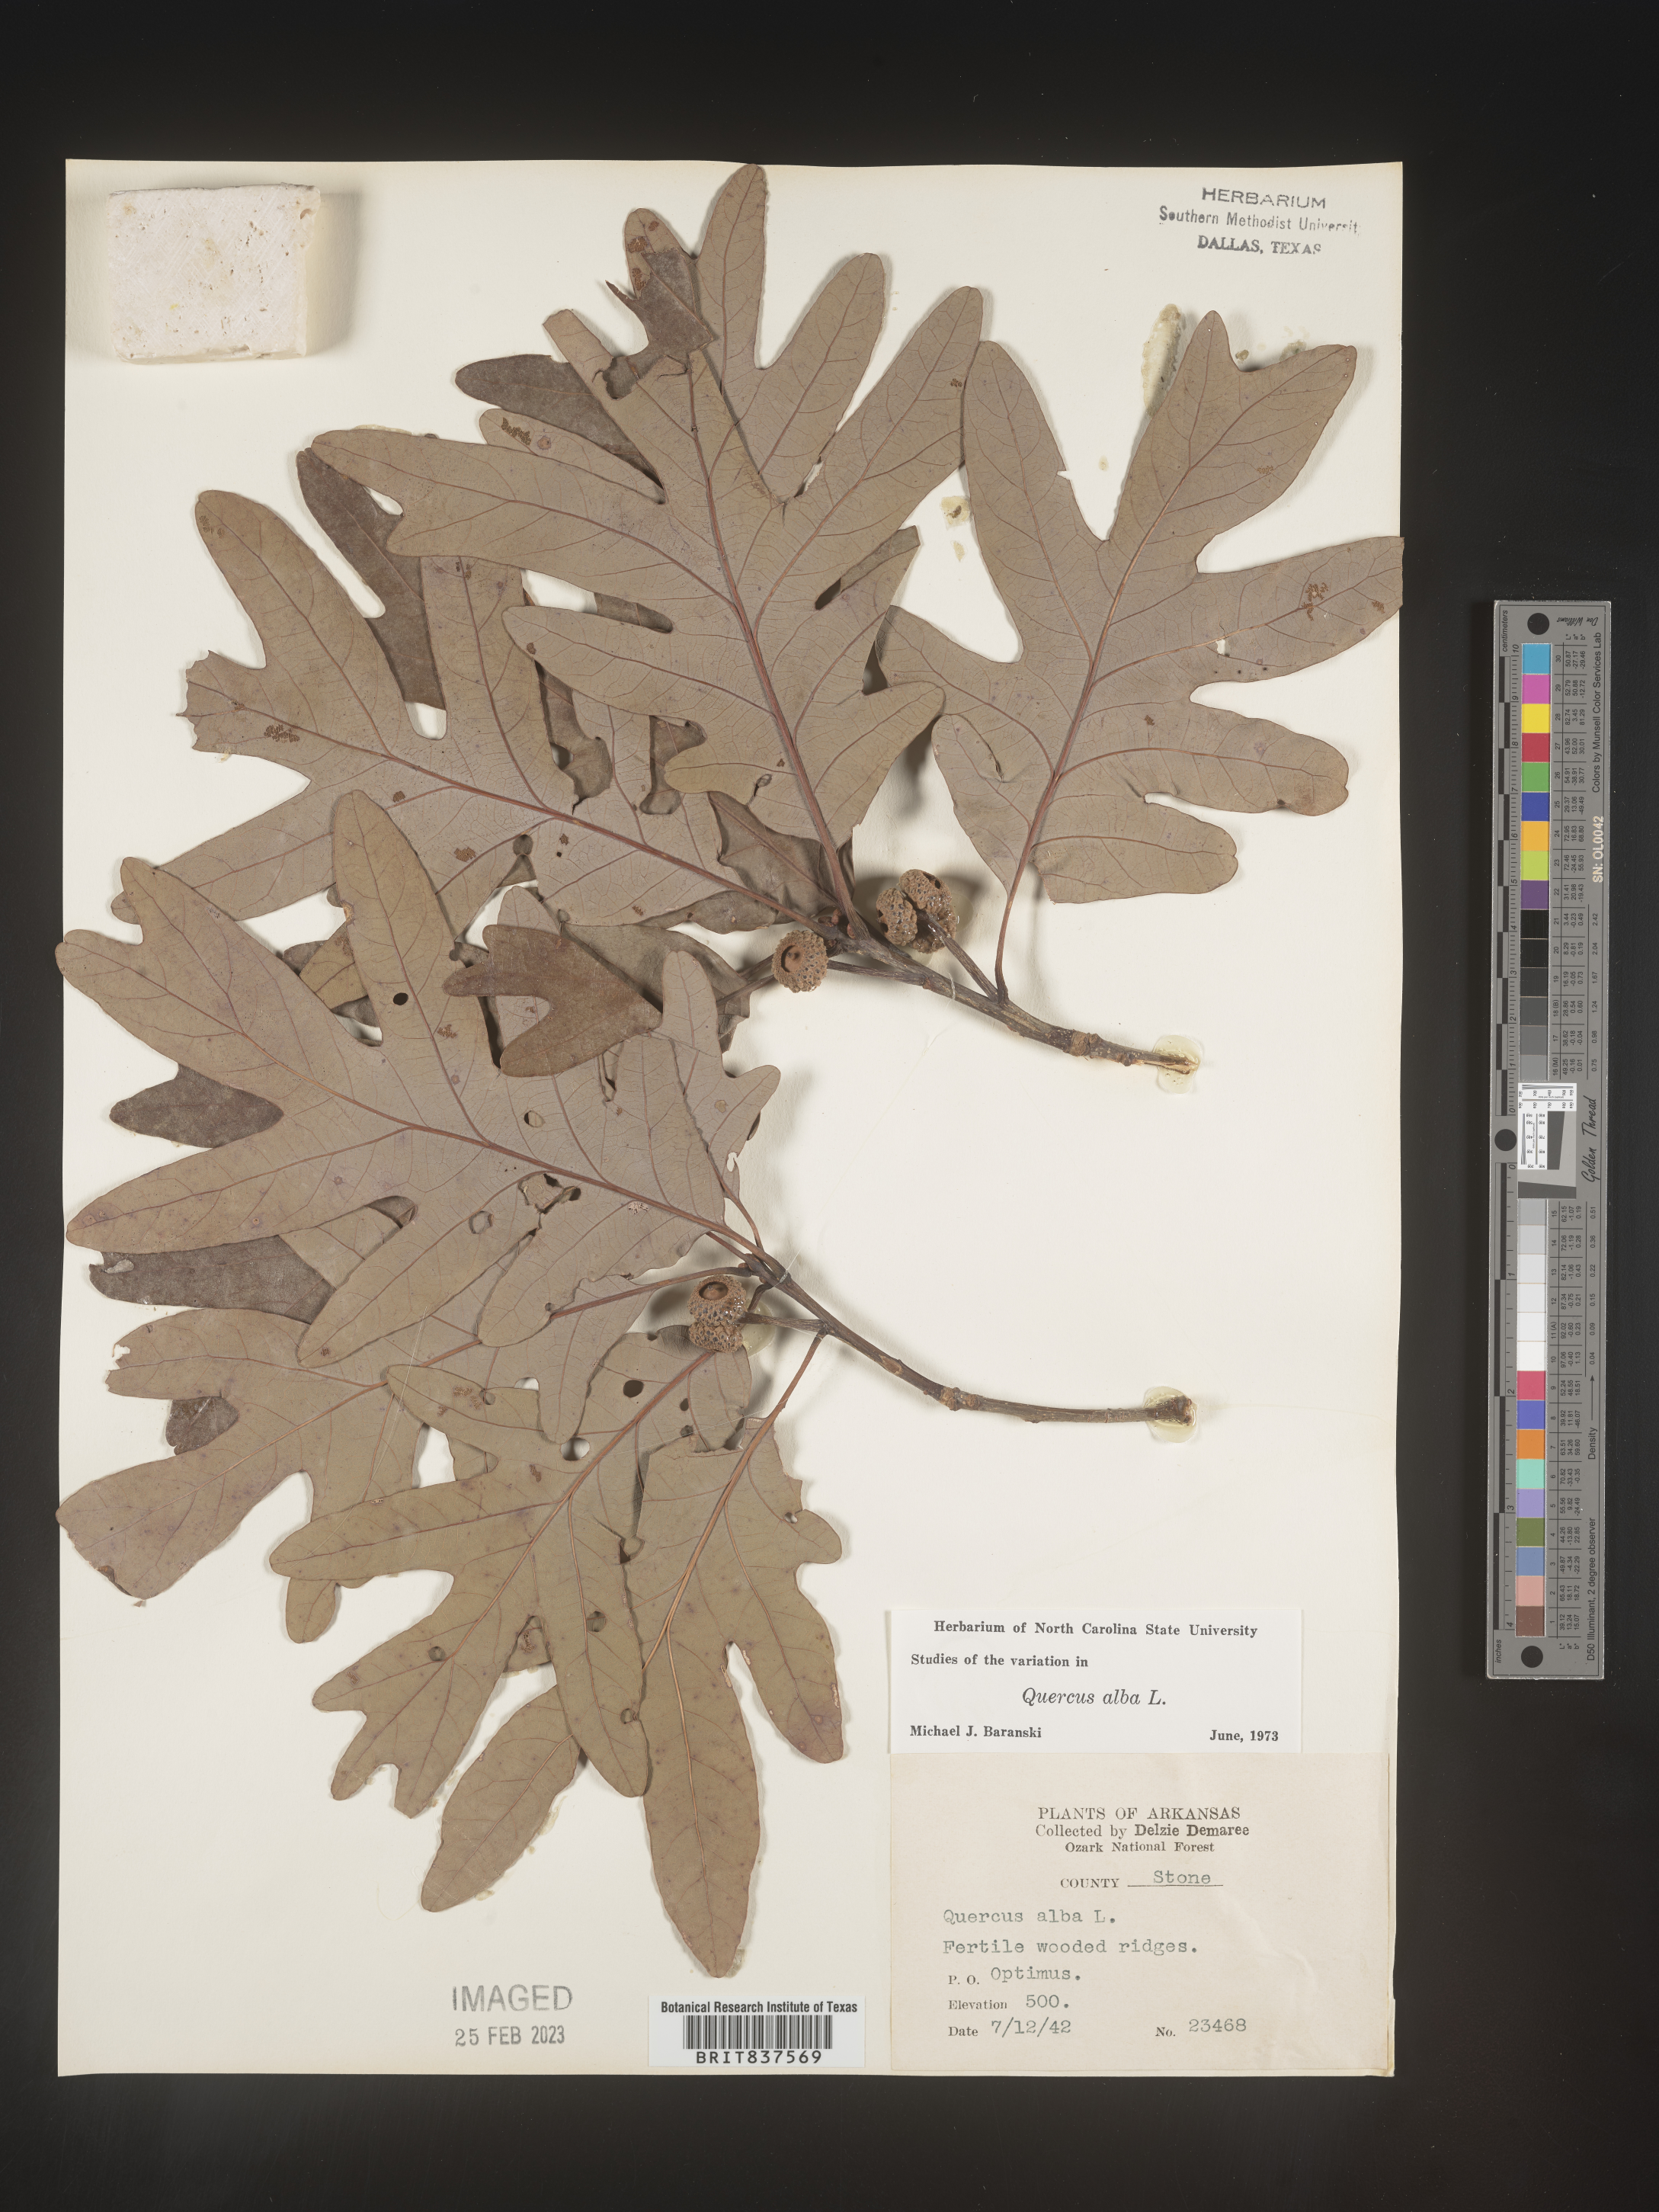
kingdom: Plantae
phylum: Tracheophyta
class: Magnoliopsida
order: Fagales
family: Fagaceae
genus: Quercus
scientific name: Quercus alba
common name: White oak
